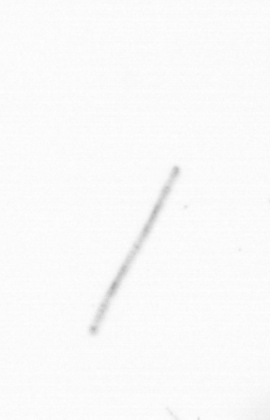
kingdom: Chromista
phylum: Ochrophyta
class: Bacillariophyceae
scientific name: Bacillariophyceae
